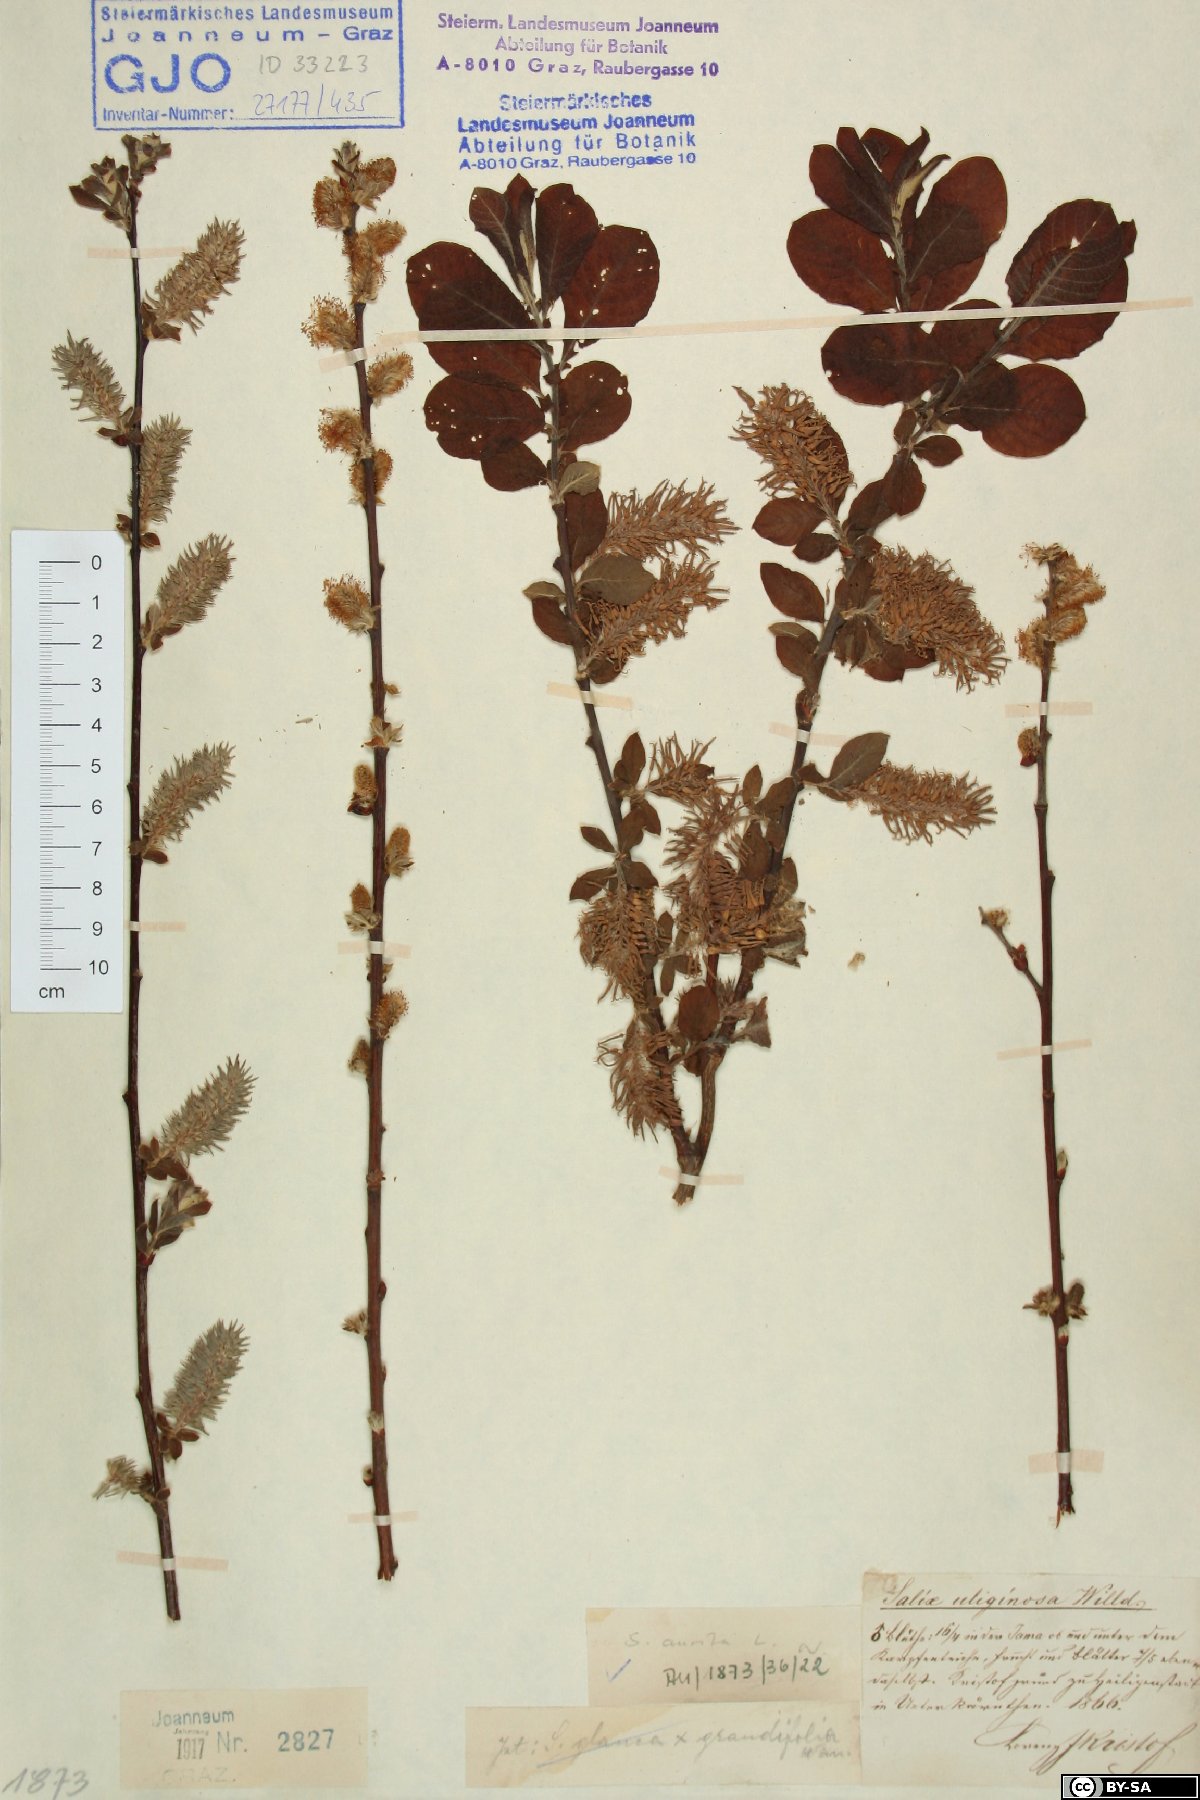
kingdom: Plantae
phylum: Tracheophyta
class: Magnoliopsida
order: Malpighiales
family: Salicaceae
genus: Salix
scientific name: Salix aurita
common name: Eared willow
